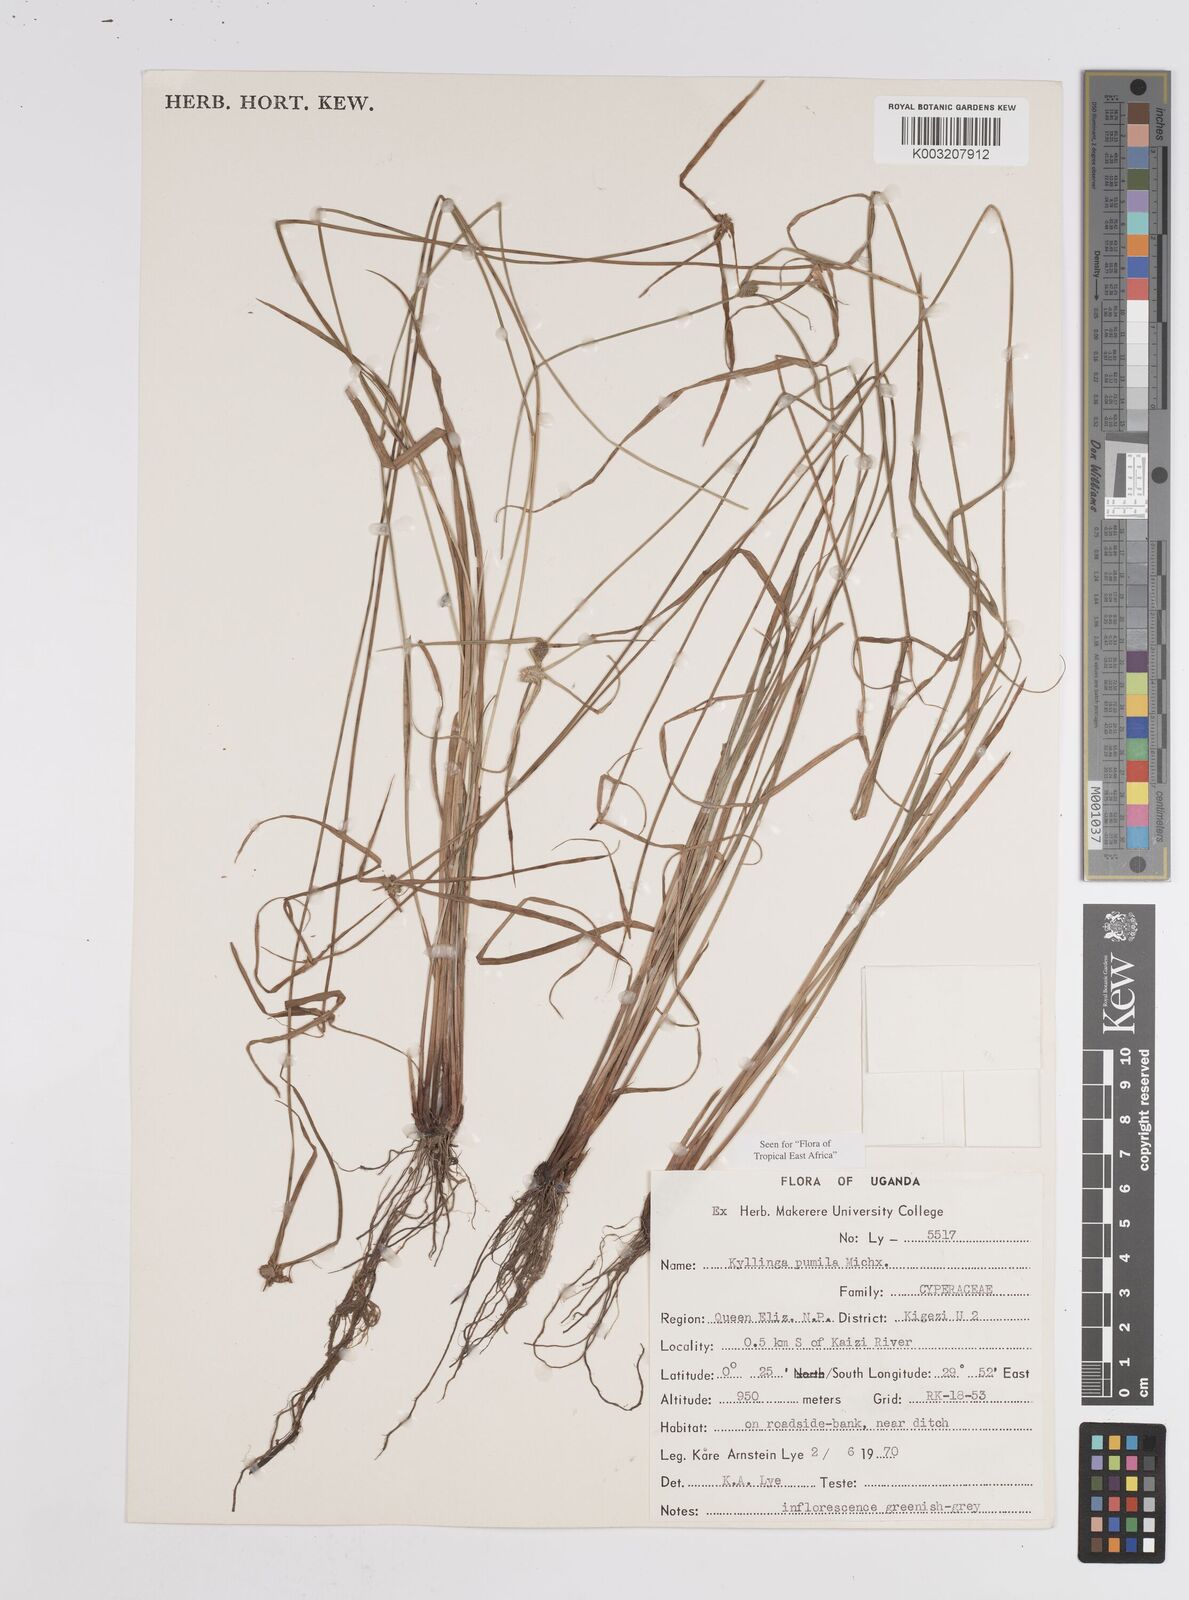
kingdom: Plantae
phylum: Tracheophyta
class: Liliopsida
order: Poales
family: Cyperaceae
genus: Cyperus
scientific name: Cyperus
